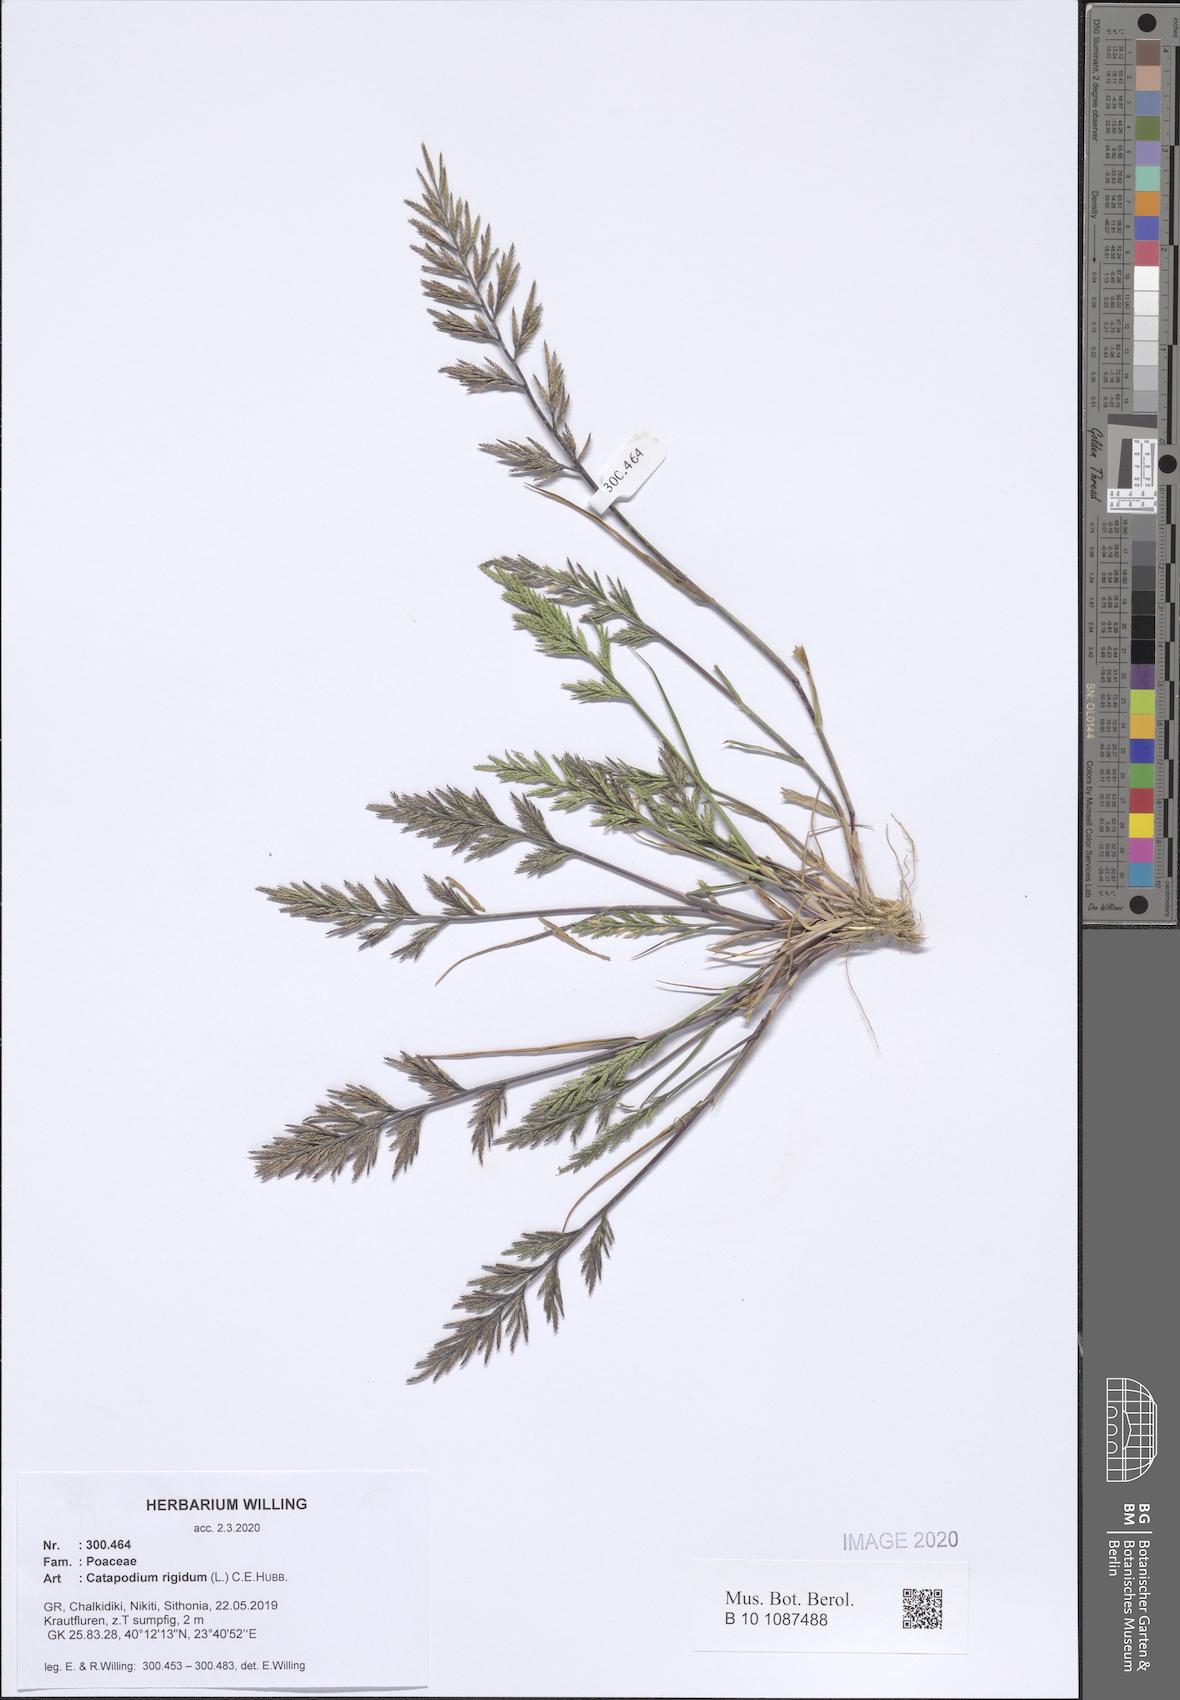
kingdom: Plantae
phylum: Tracheophyta
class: Liliopsida
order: Poales
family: Poaceae
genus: Catapodium
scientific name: Catapodium rigidum
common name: Fern-grass
